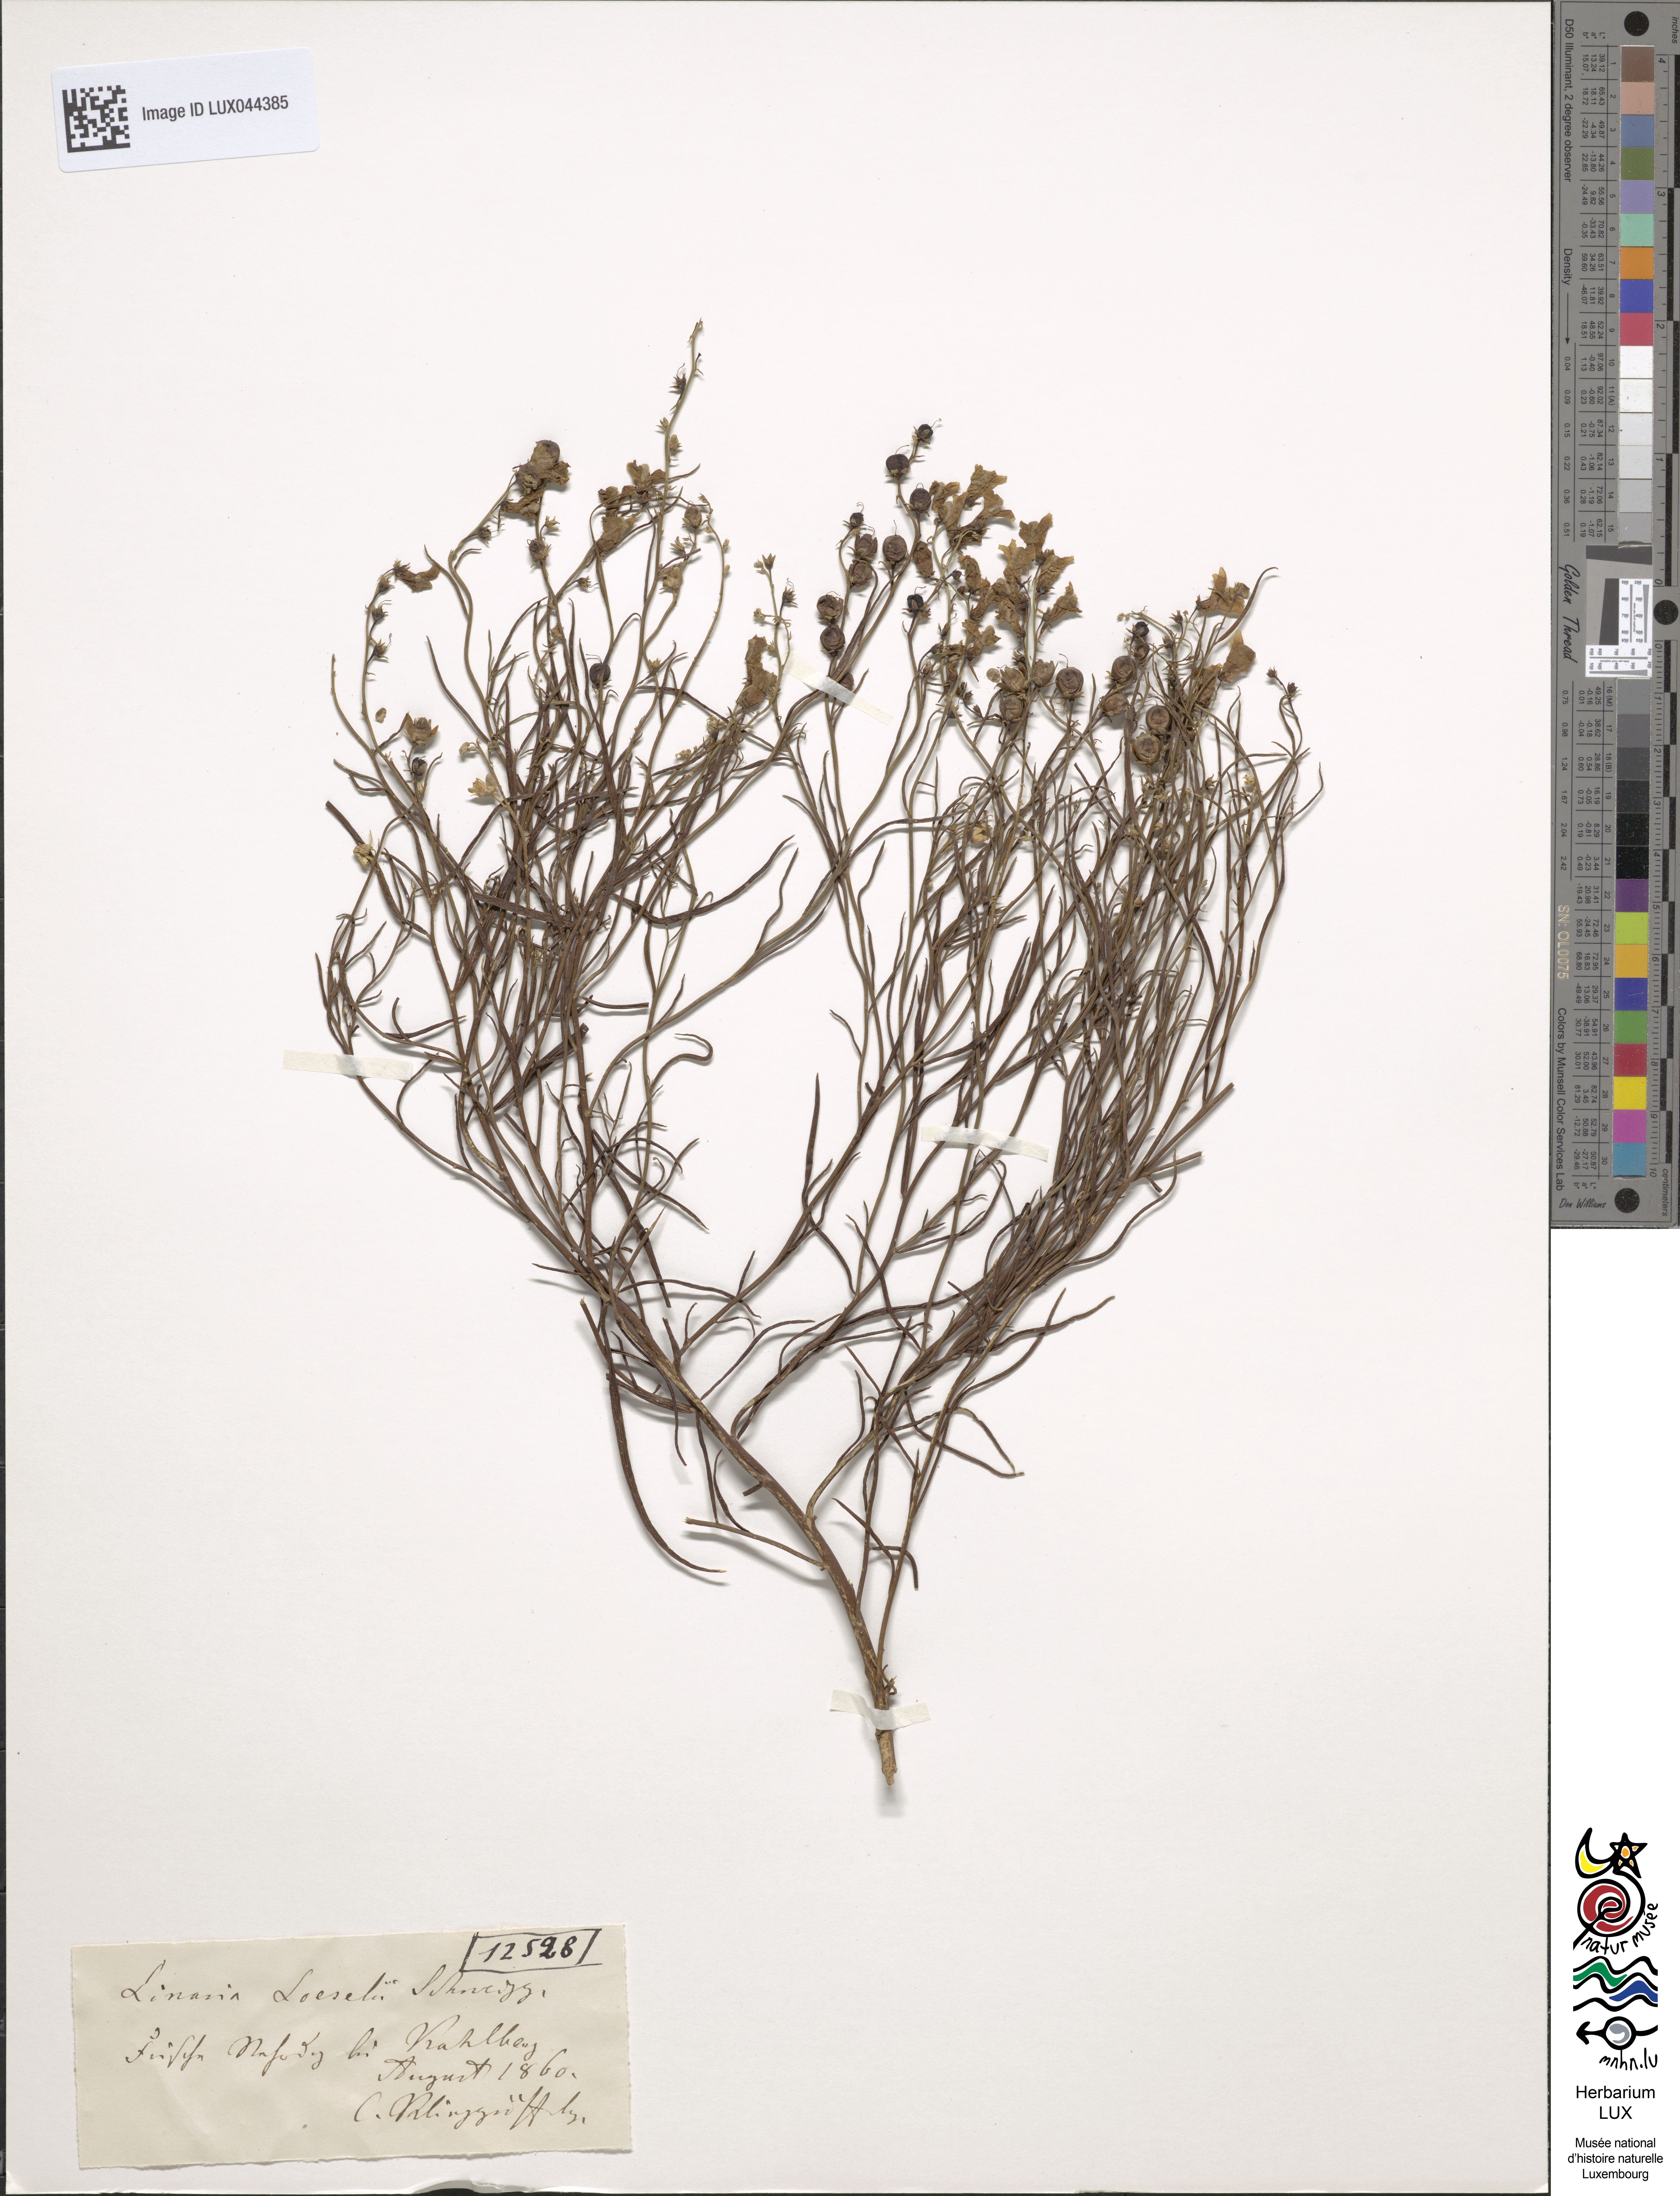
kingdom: Plantae
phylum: Tracheophyta
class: Magnoliopsida
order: Lamiales
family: Plantaginaceae
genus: Linaria
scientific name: Linaria odora
